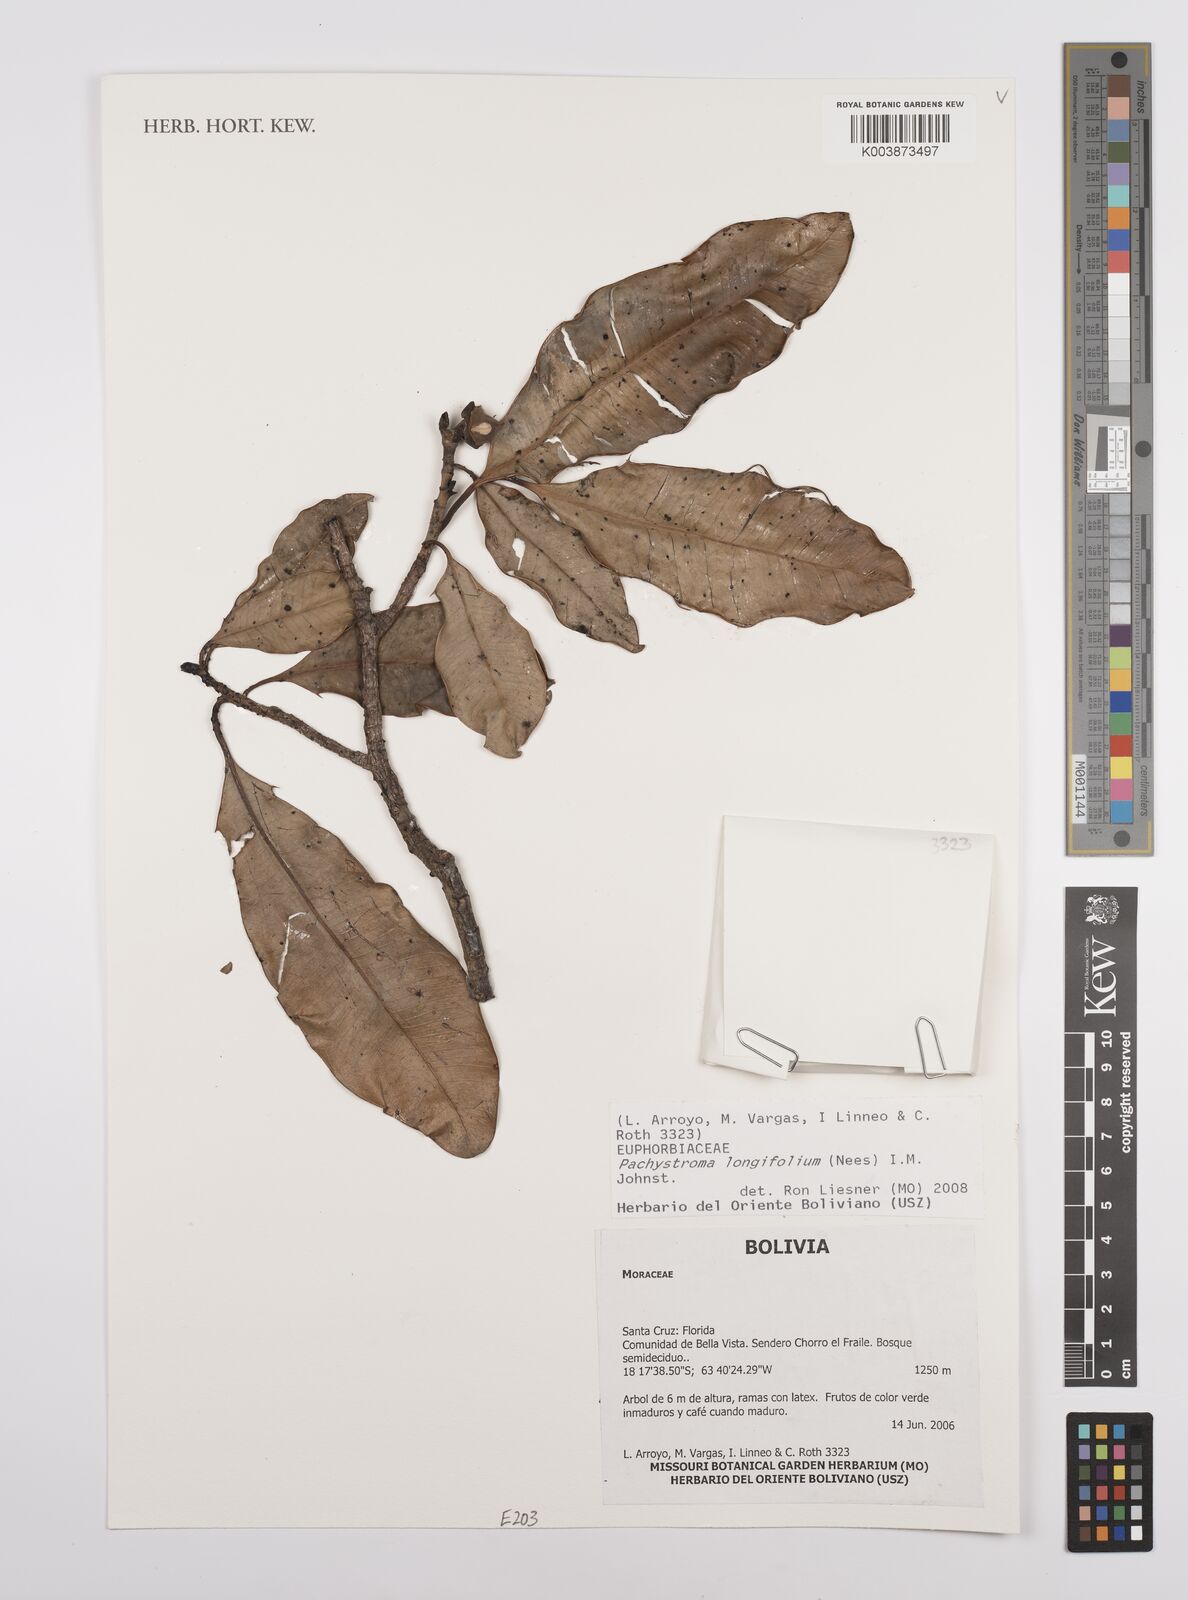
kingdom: Plantae
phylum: Tracheophyta
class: Magnoliopsida
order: Malpighiales
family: Euphorbiaceae
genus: Pachystroma
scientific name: Pachystroma longifolium
